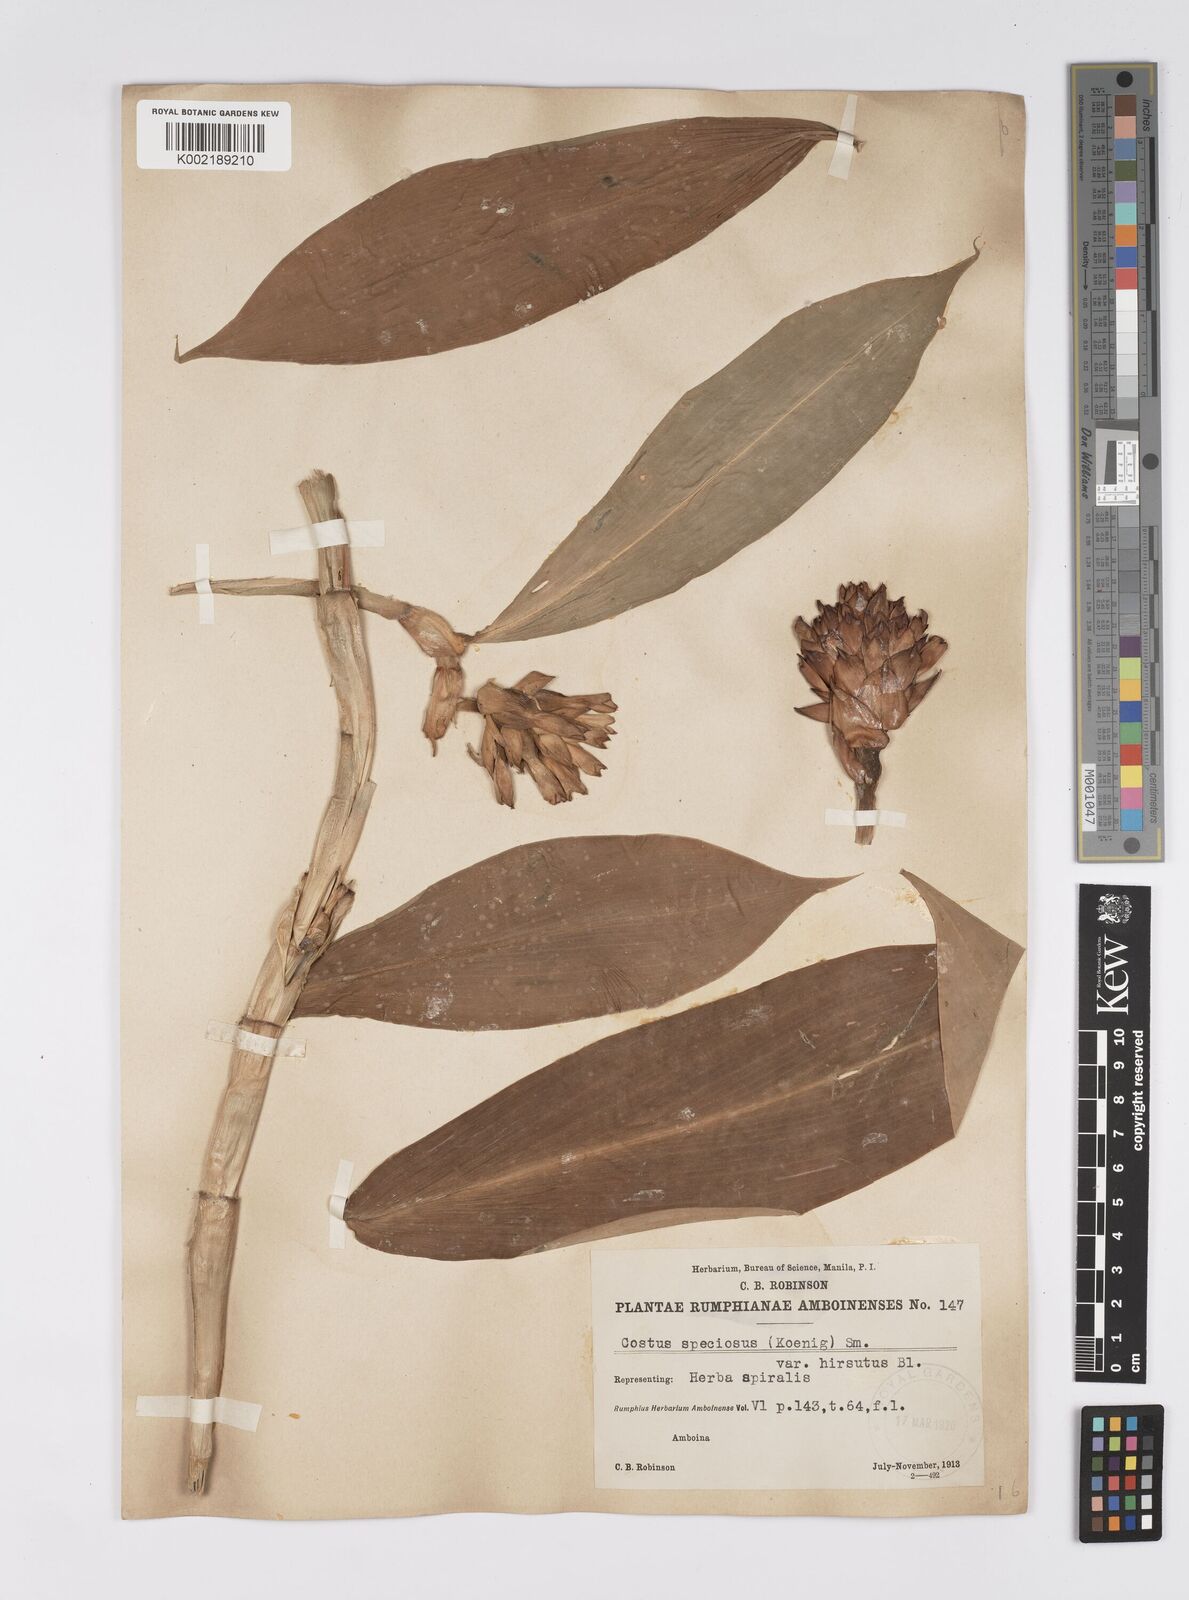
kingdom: Plantae
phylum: Tracheophyta
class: Liliopsida
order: Zingiberales
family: Costaceae
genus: Hellenia
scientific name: Hellenia speciosa
